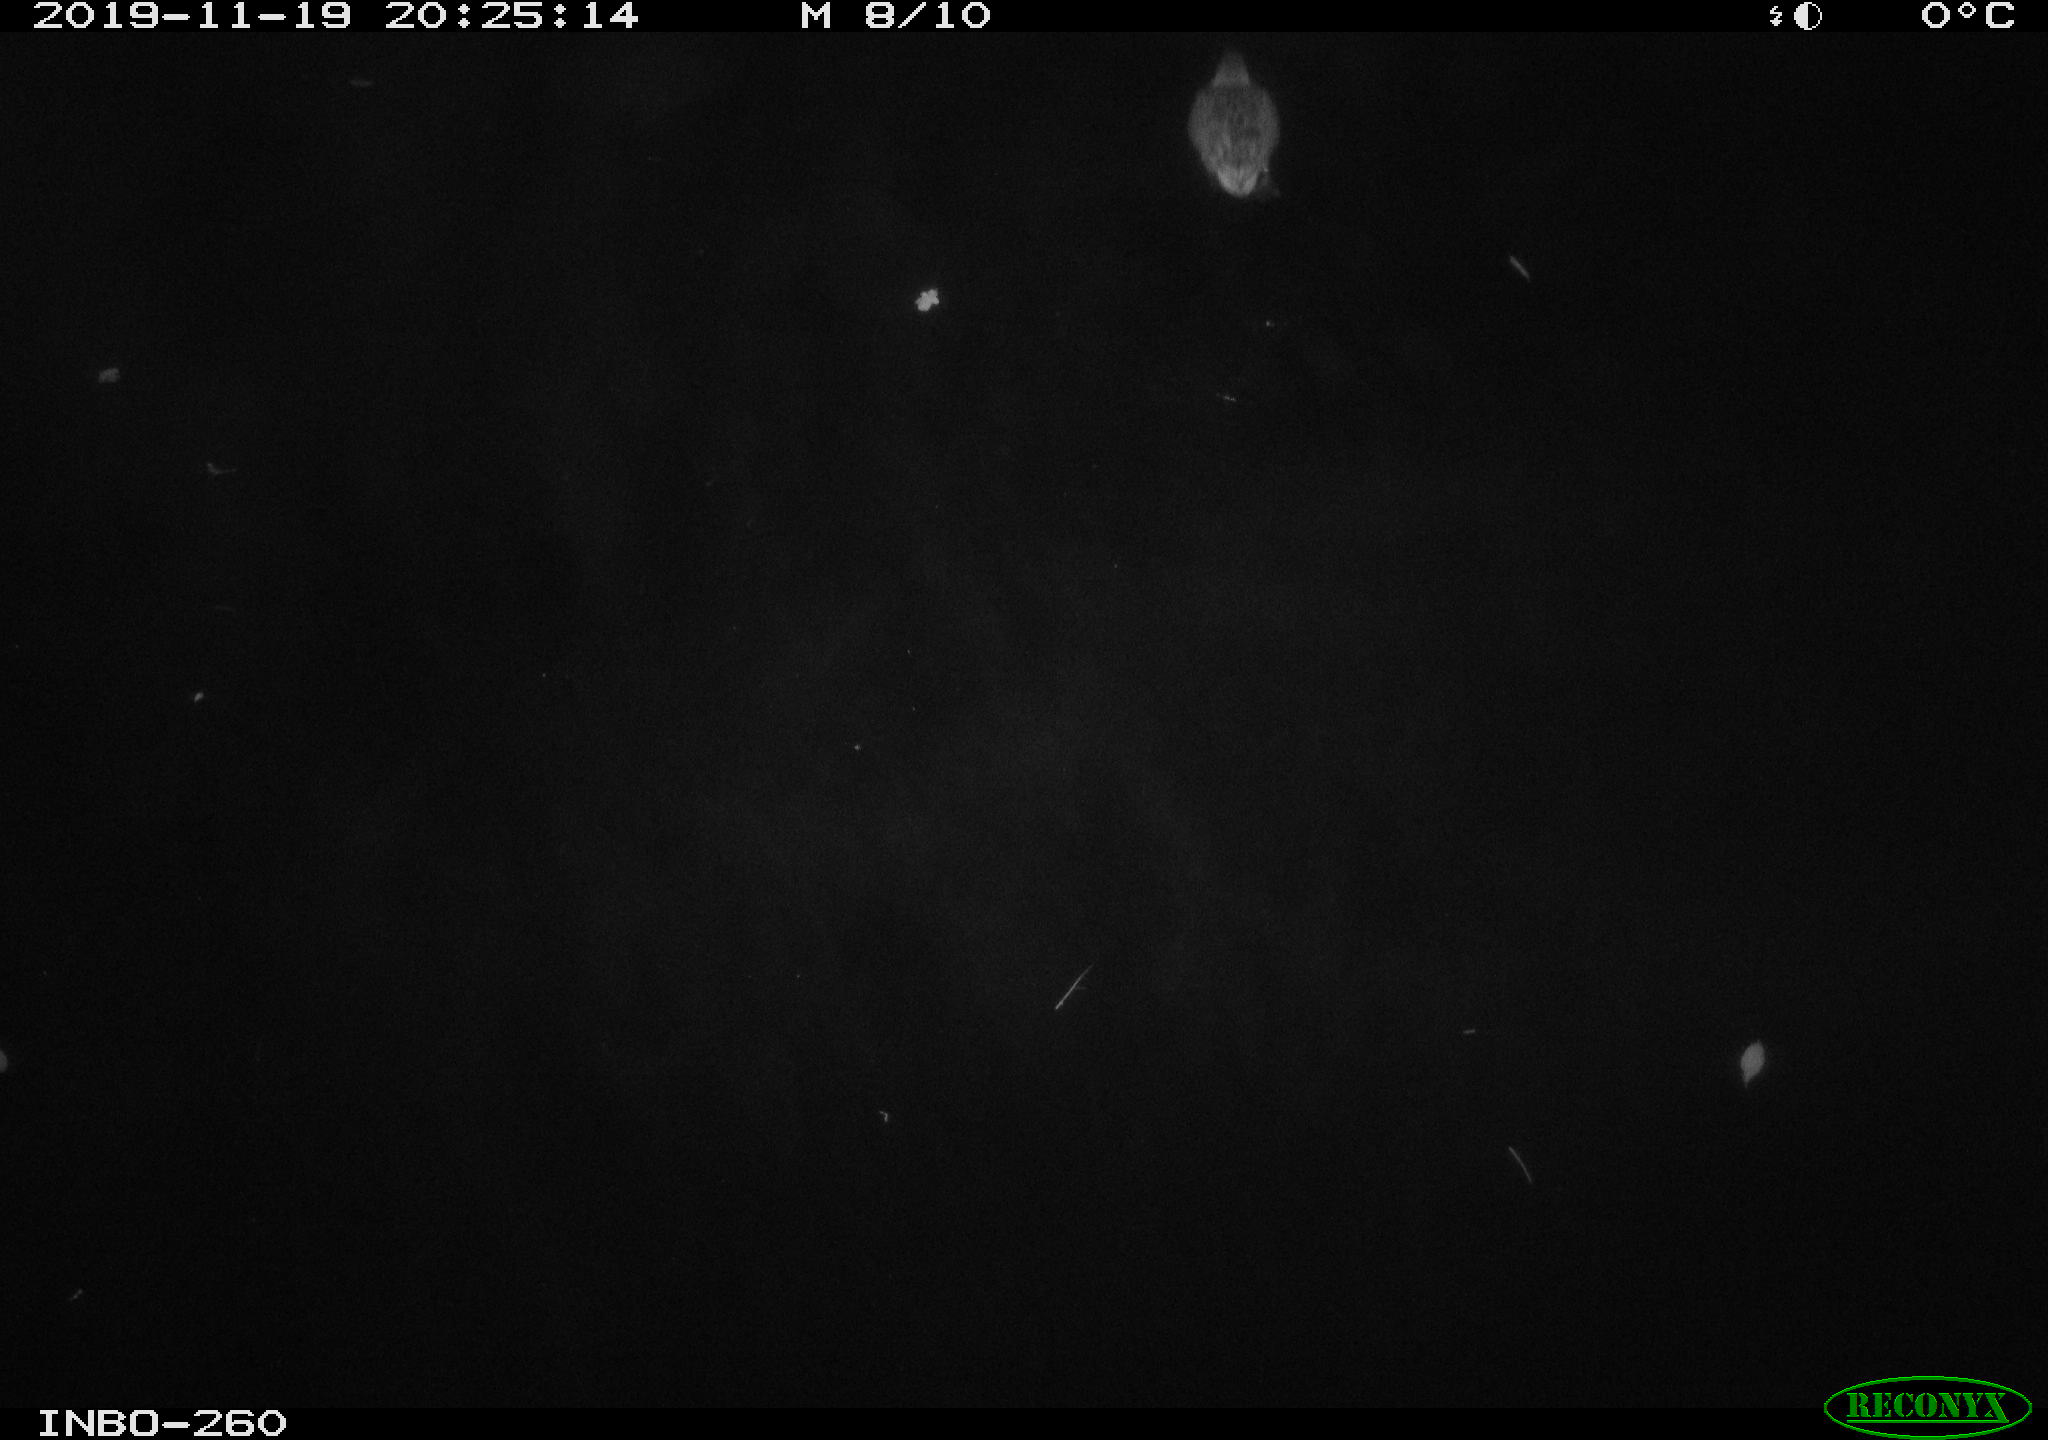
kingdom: Animalia
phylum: Chordata
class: Aves
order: Anseriformes
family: Anatidae
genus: Anas
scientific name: Anas platyrhynchos
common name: Mallard
